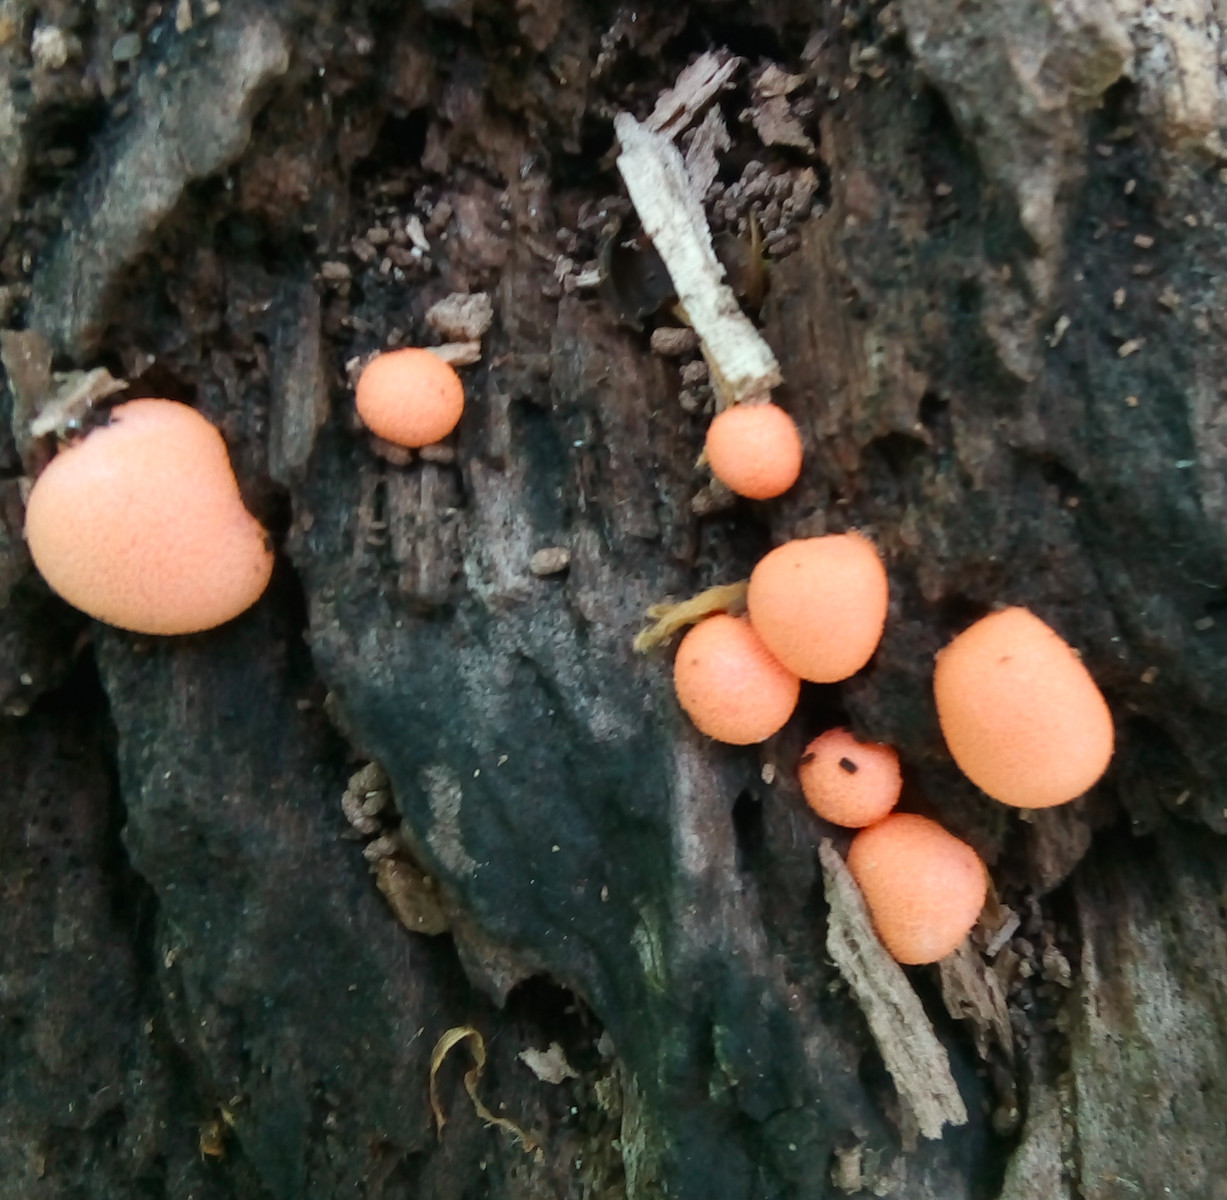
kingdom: Protozoa
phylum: Mycetozoa
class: Myxomycetes
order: Cribrariales
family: Tubiferaceae
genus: Lycogala
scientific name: Lycogala epidendrum
